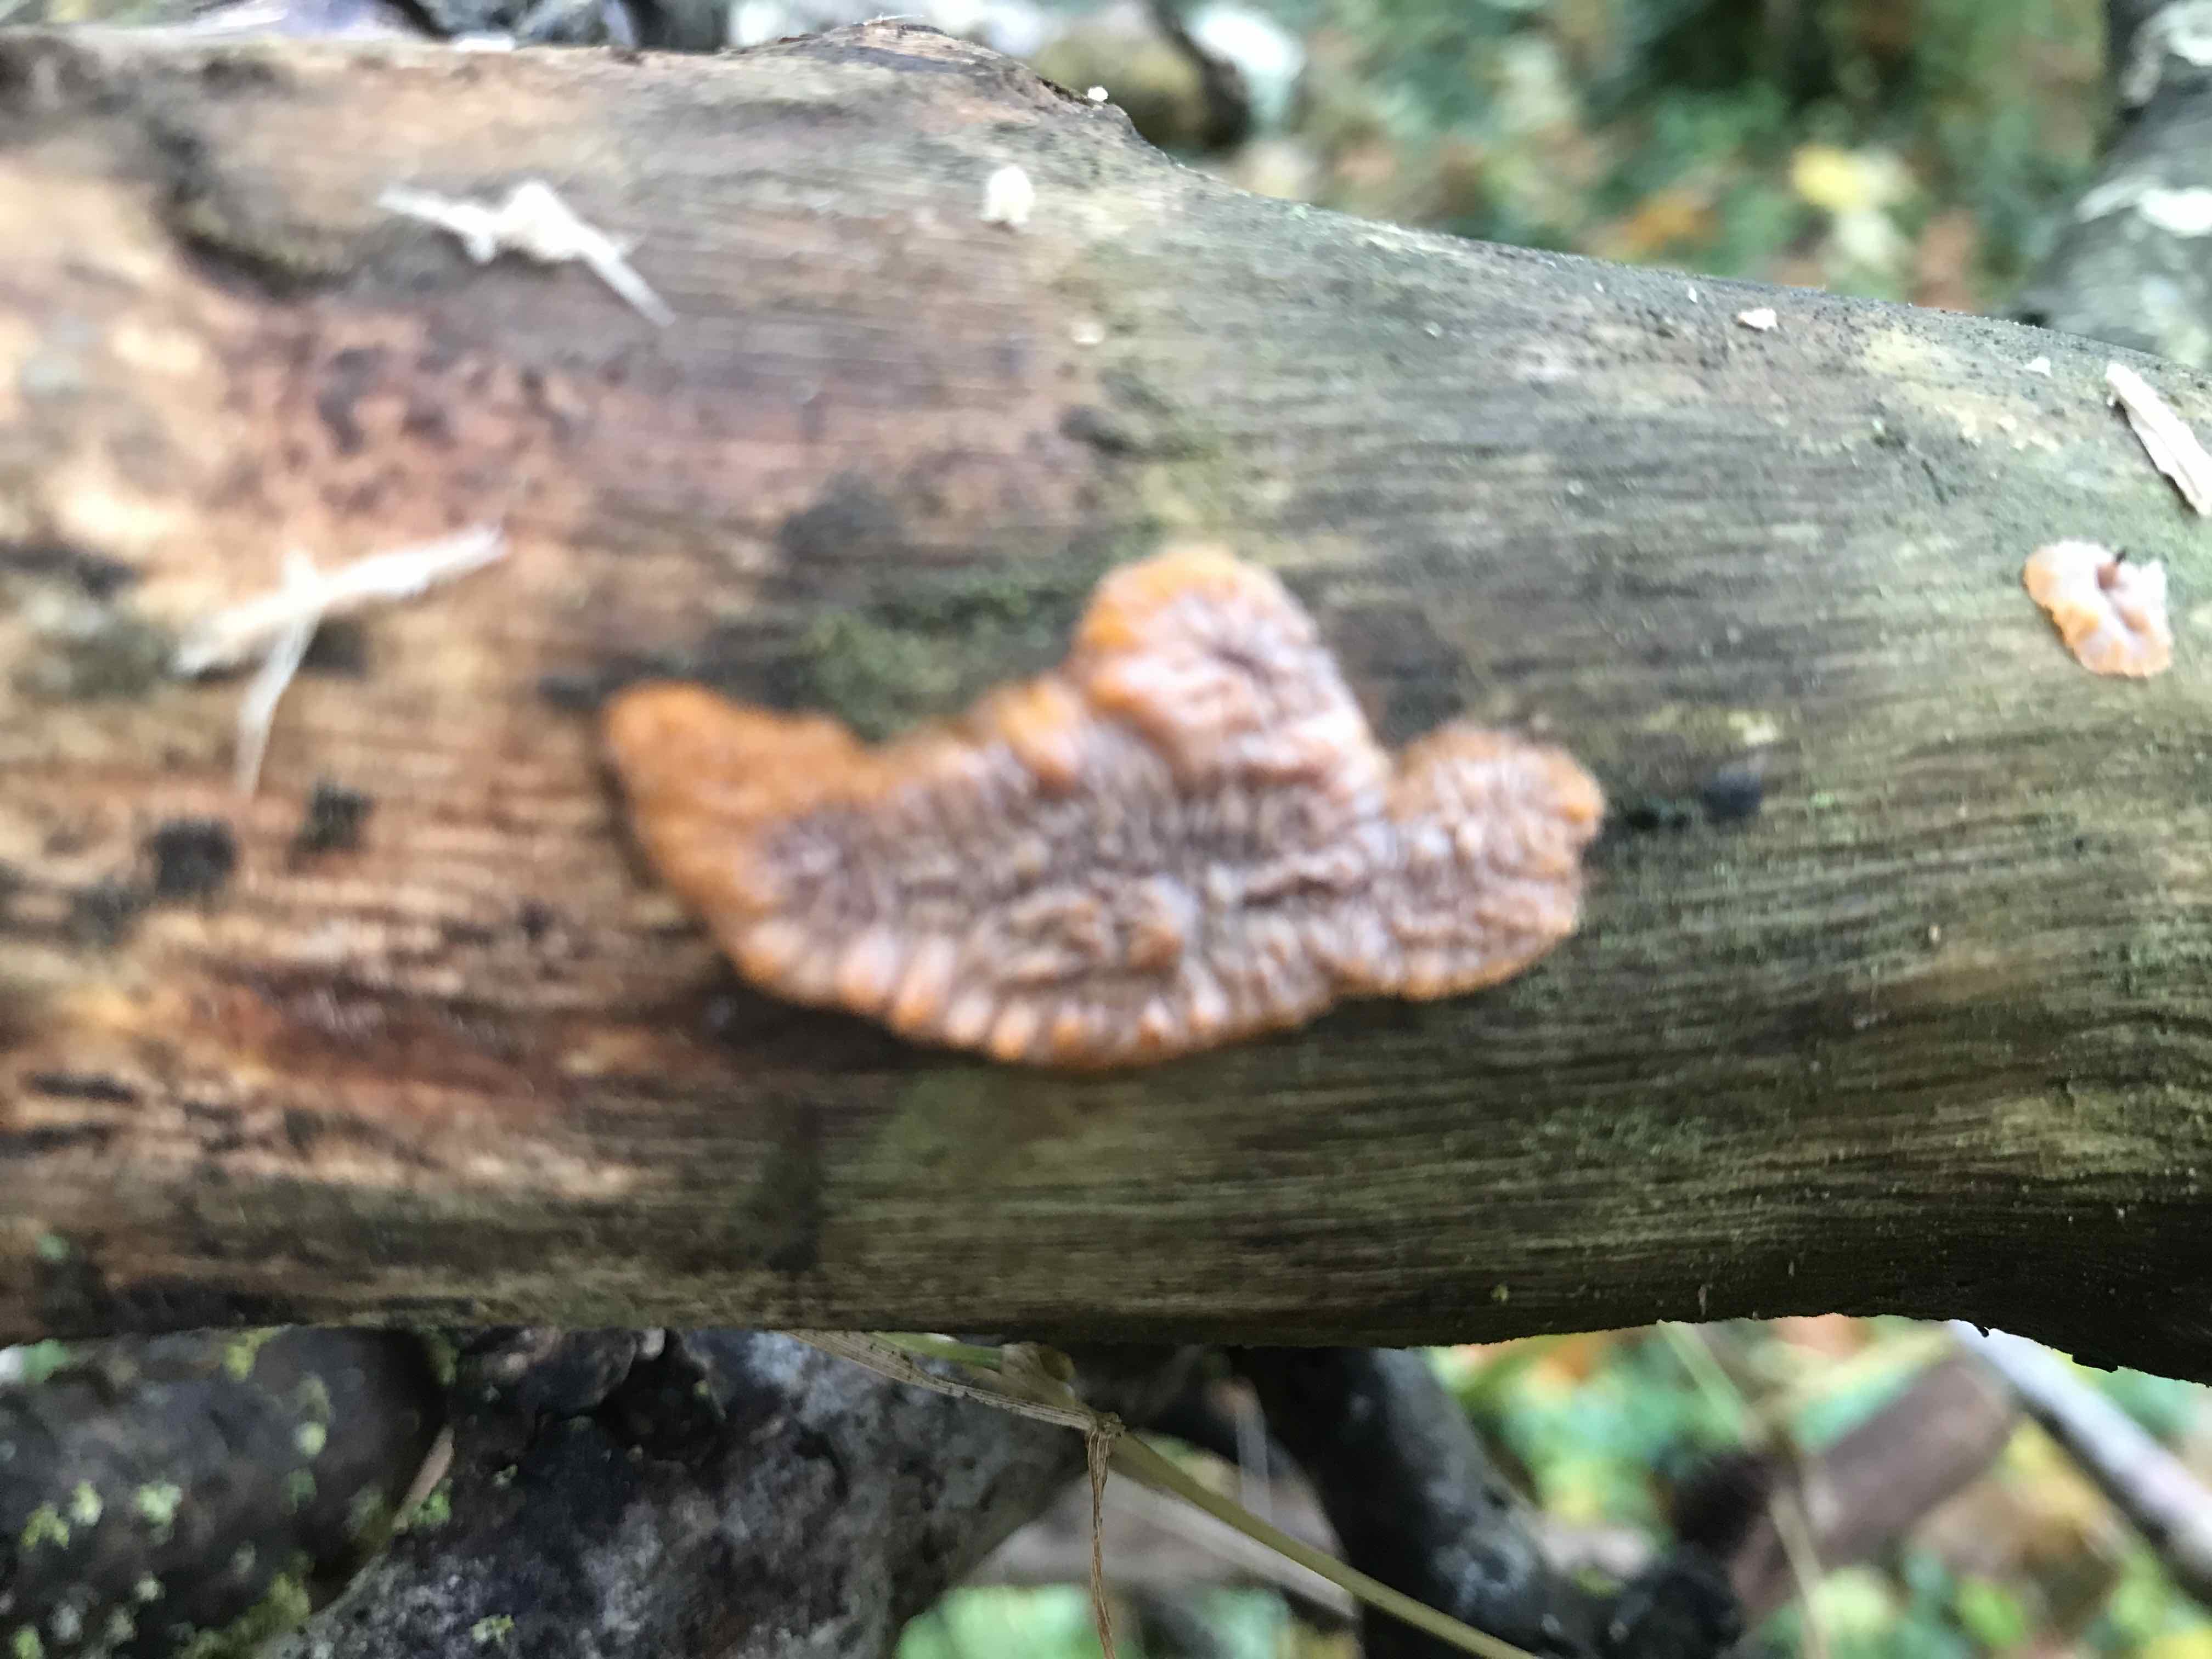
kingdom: Fungi
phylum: Basidiomycota
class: Agaricomycetes
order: Polyporales
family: Meruliaceae
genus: Phlebia
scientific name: Phlebia radiata
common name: stråle-åresvamp
